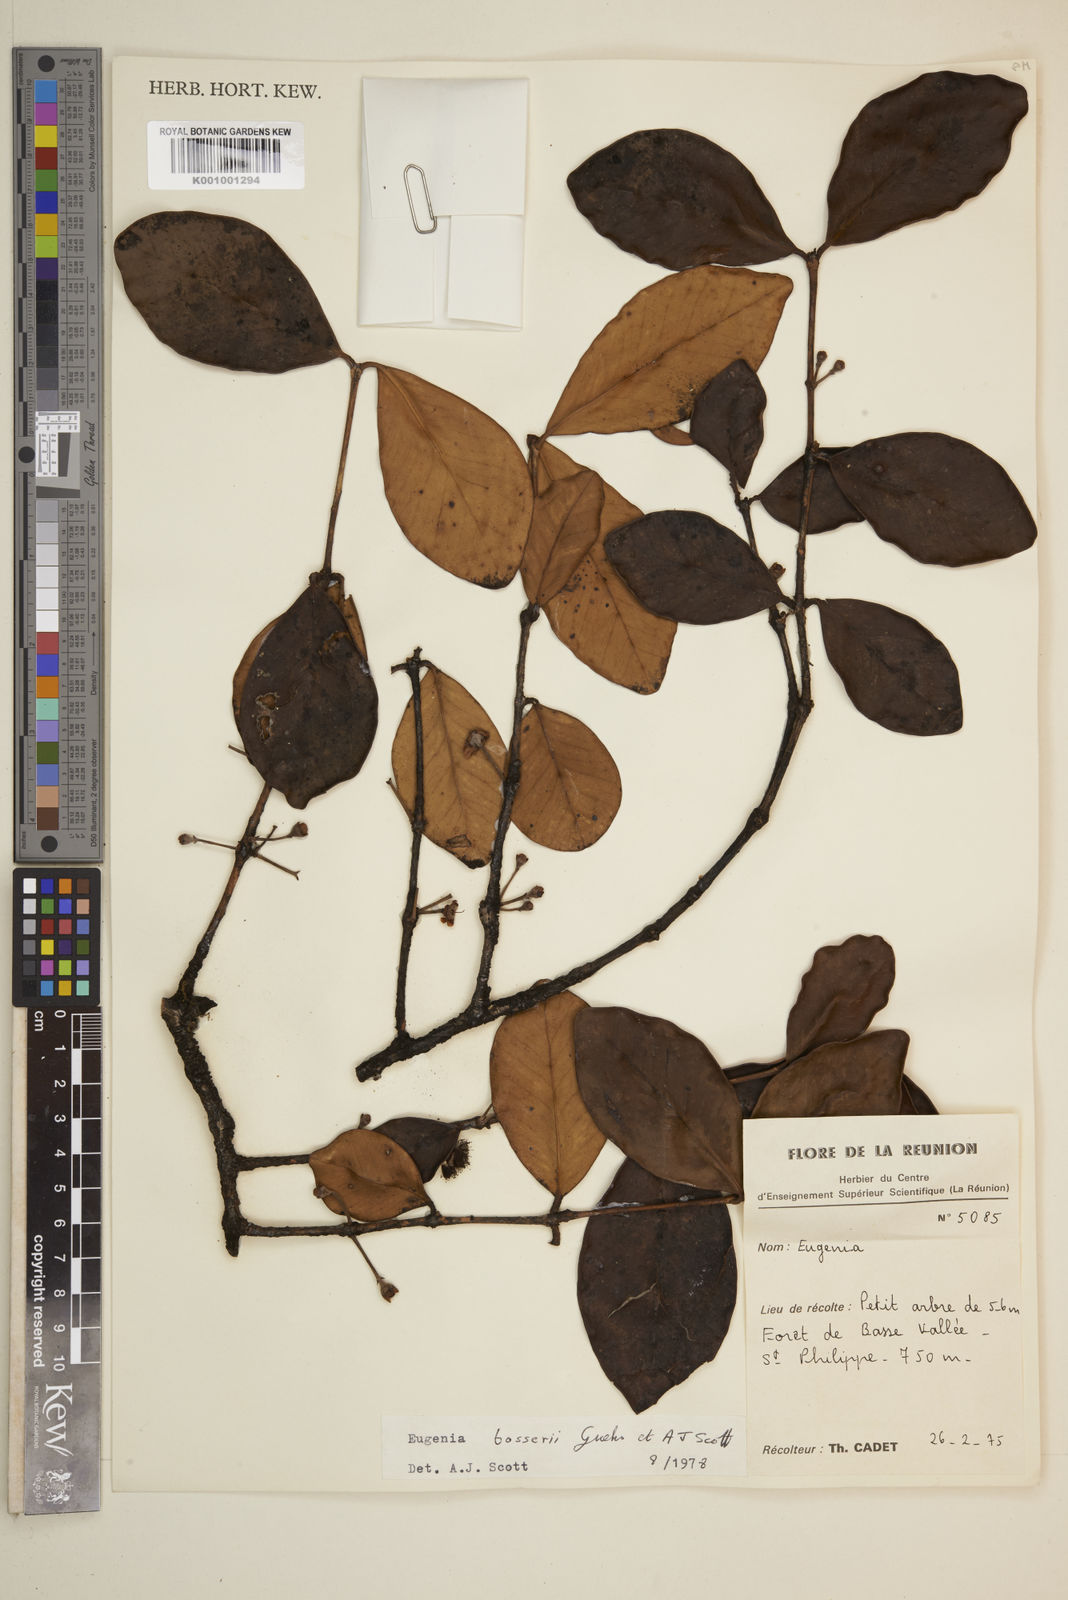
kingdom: Plantae
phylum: Tracheophyta
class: Magnoliopsida
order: Myrtales
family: Myrtaceae
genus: Eugenia
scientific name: Eugenia
